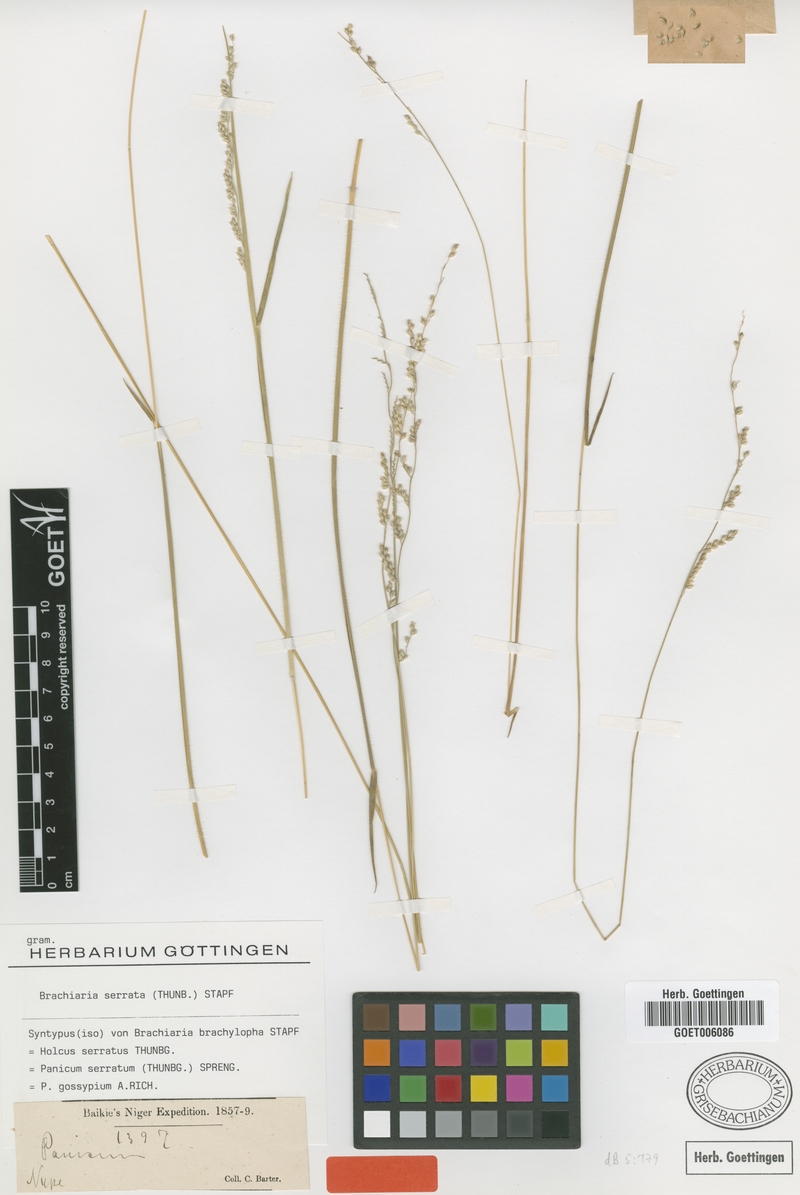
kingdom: Plantae
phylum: Tracheophyta
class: Liliopsida
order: Poales
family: Poaceae
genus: Urochloa
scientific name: Urochloa serrata
